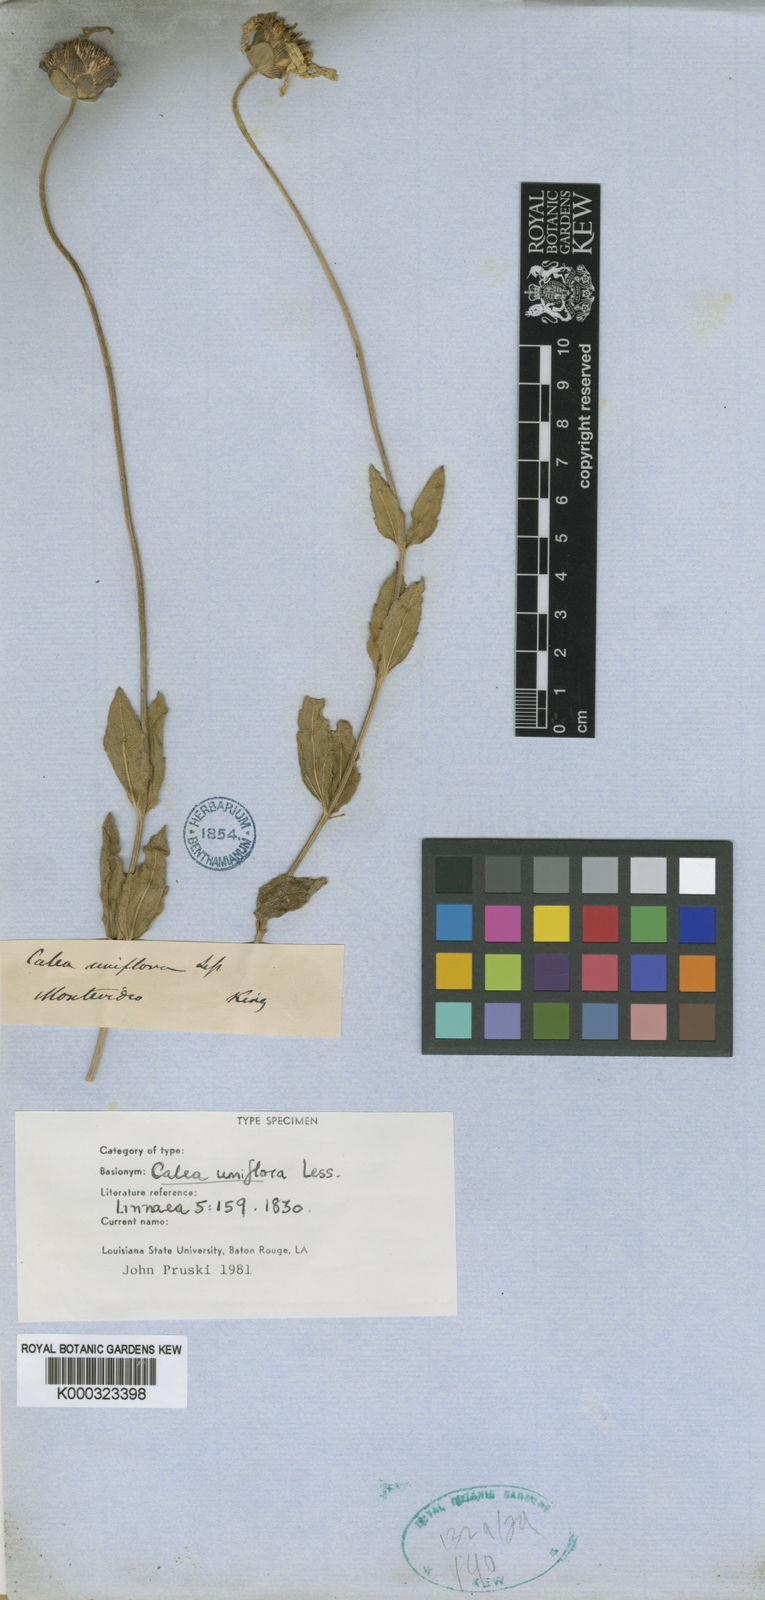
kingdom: Plantae
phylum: Tracheophyta
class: Magnoliopsida
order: Asterales
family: Asteraceae
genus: Calea
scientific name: Calea uniflora
